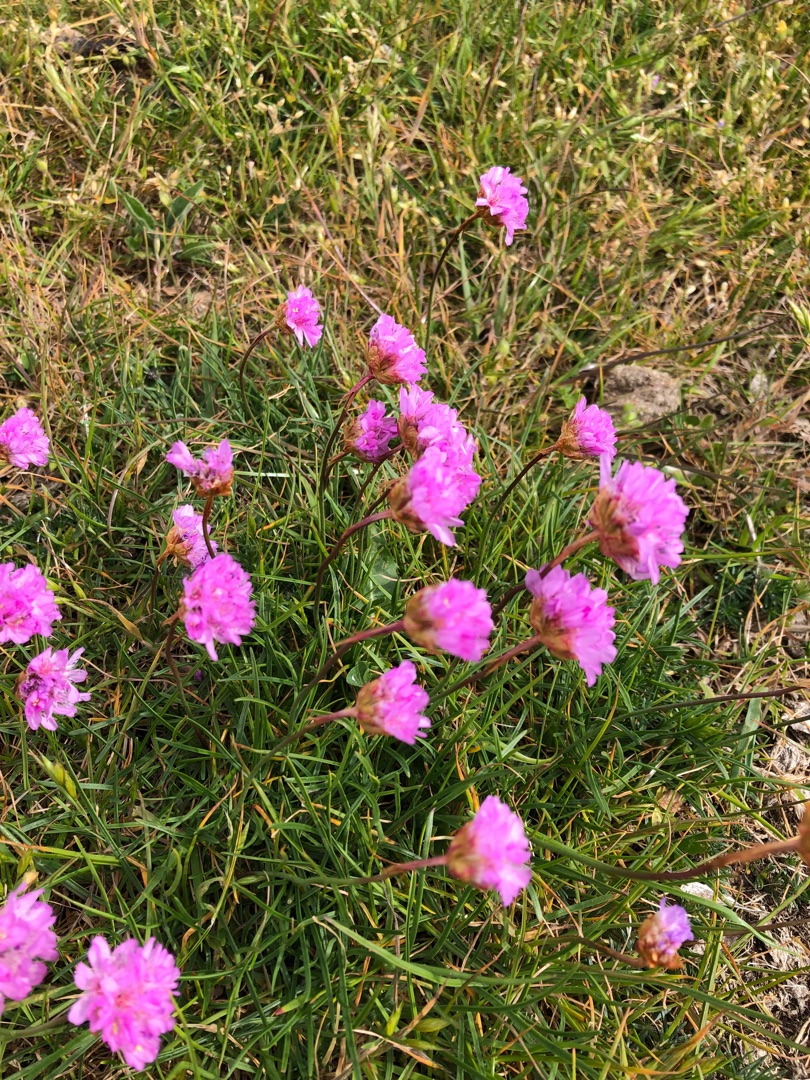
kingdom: Plantae
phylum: Tracheophyta
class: Magnoliopsida
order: Caryophyllales
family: Plumbaginaceae
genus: Armeria
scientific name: Armeria maritima
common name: Engelskgræs
